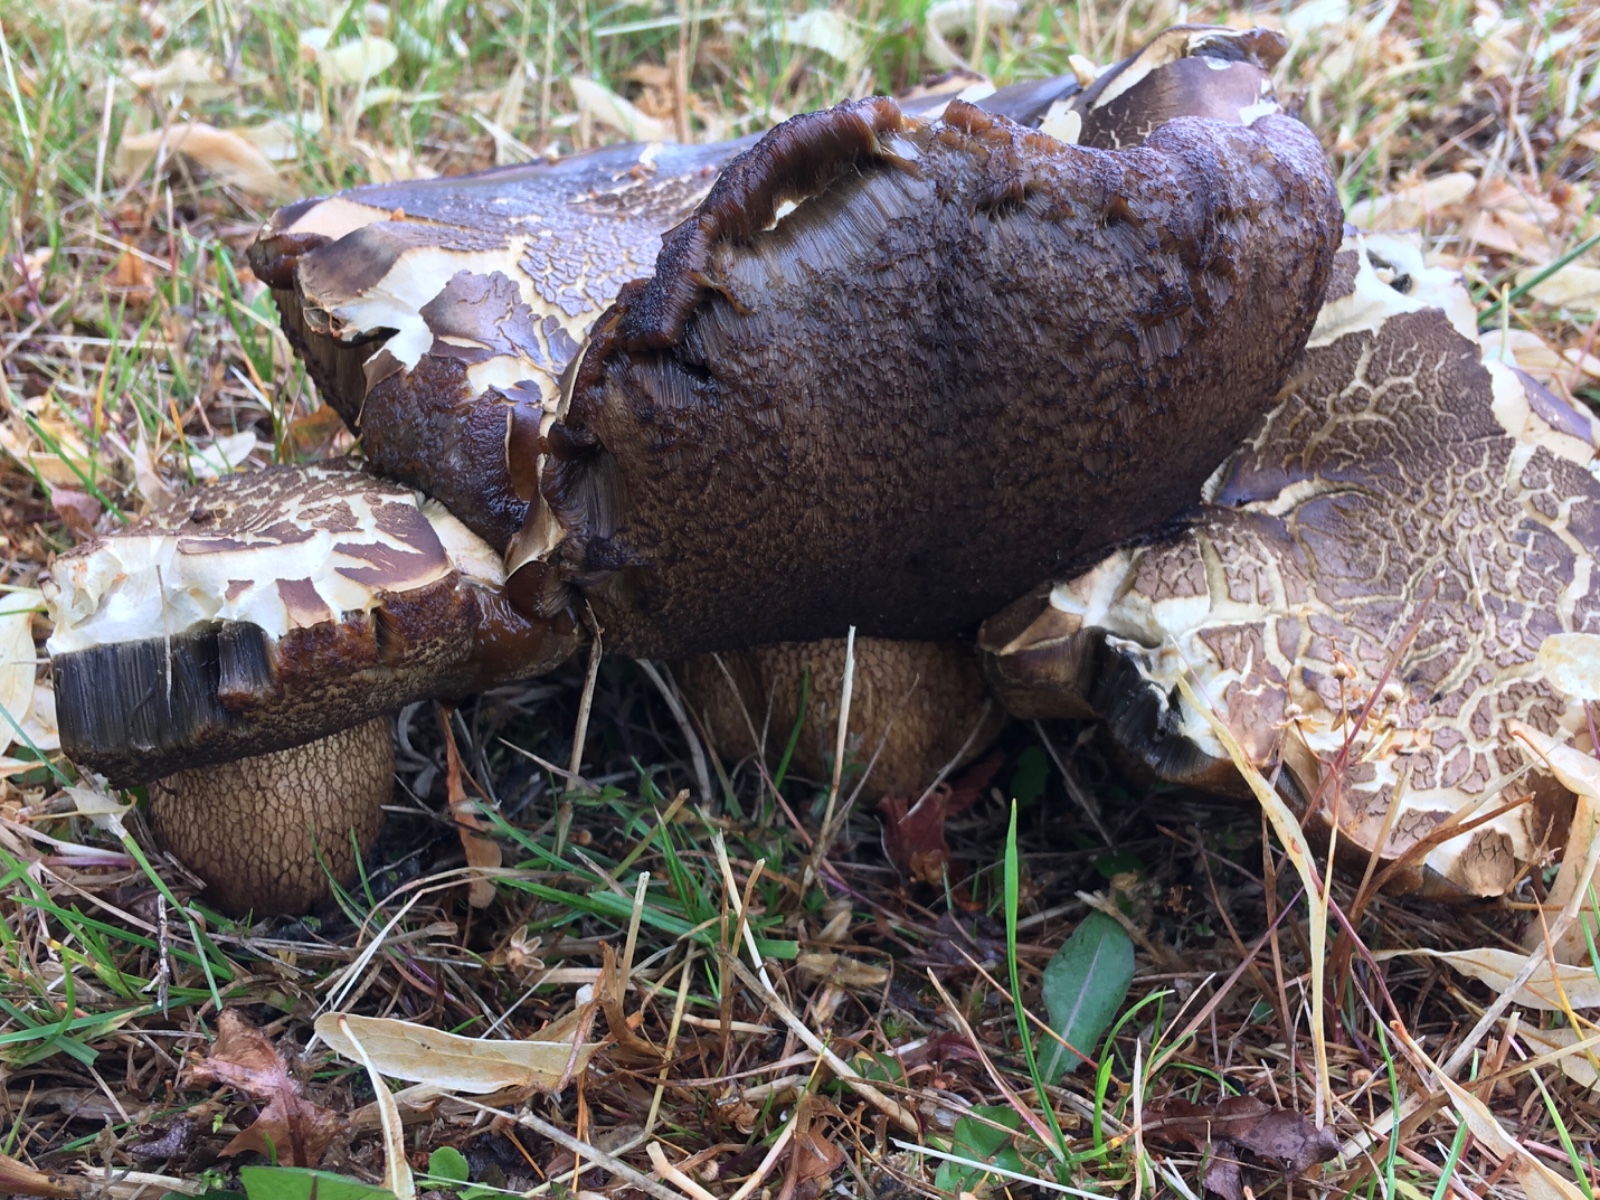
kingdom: Fungi
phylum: Basidiomycota
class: Agaricomycetes
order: Boletales
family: Boletaceae
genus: Suillellus
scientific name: Suillellus luridus
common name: netstokket indigorørhat
